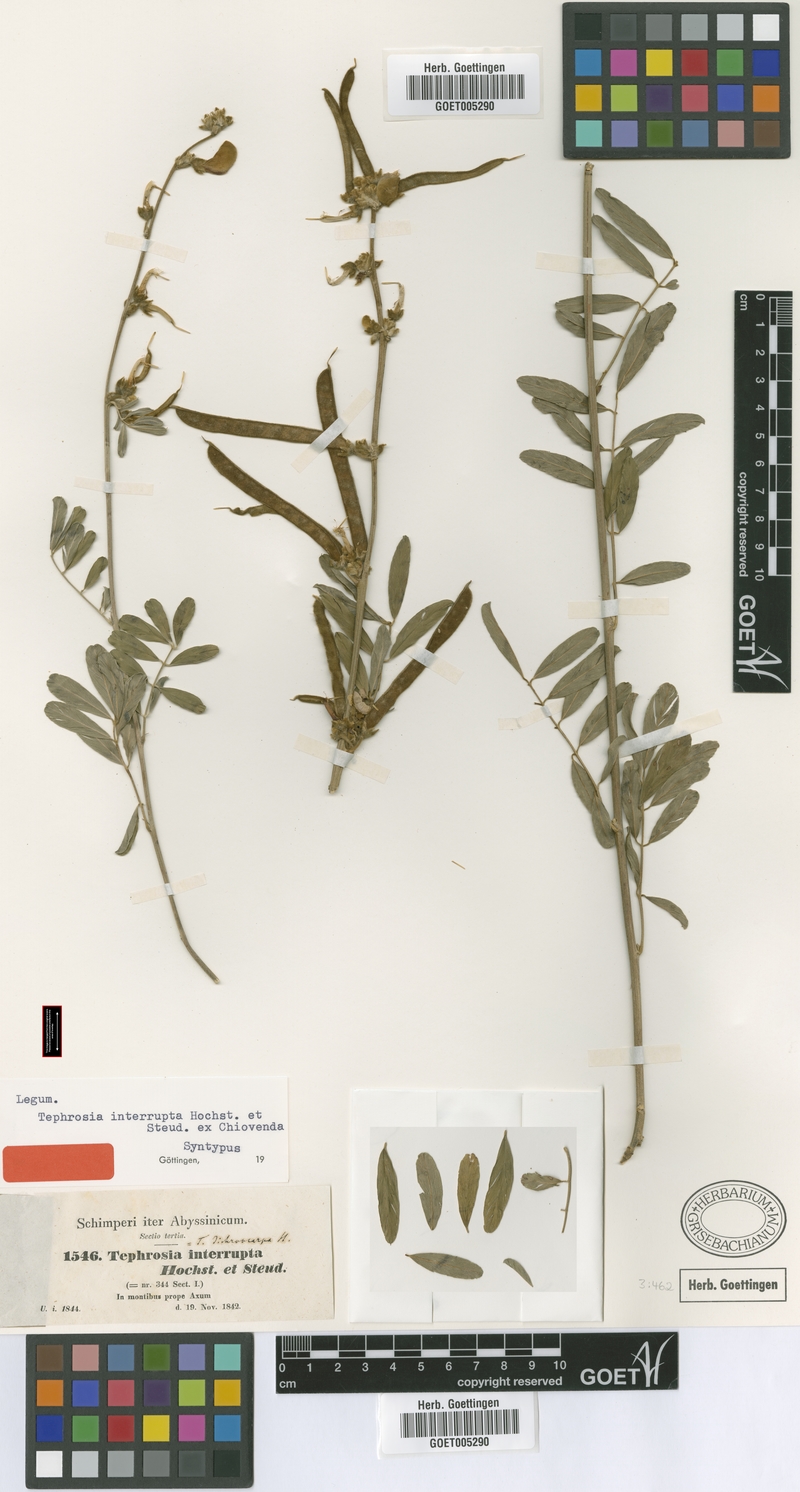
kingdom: Plantae
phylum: Tracheophyta
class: Magnoliopsida
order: Fabales
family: Fabaceae
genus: Tephrosia
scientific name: Tephrosia interrupta
